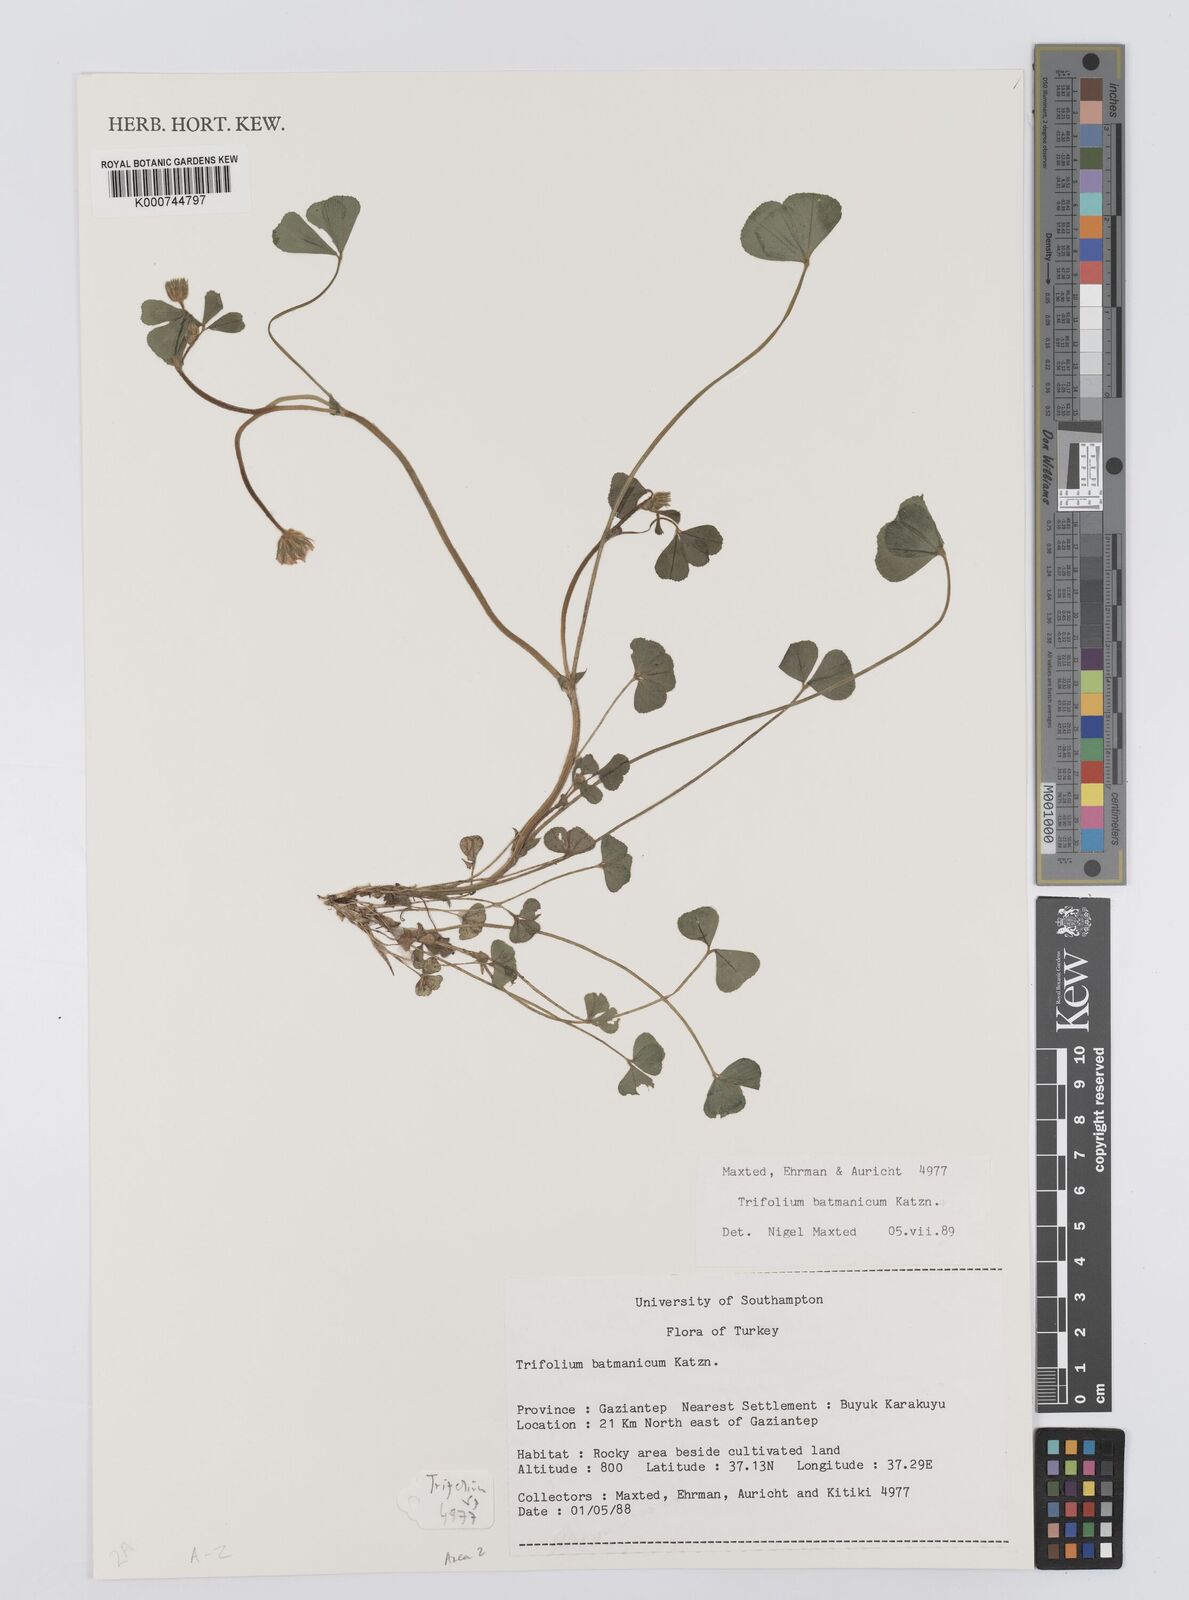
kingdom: Plantae
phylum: Tracheophyta
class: Magnoliopsida
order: Fabales
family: Fabaceae
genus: Trifolium
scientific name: Trifolium
